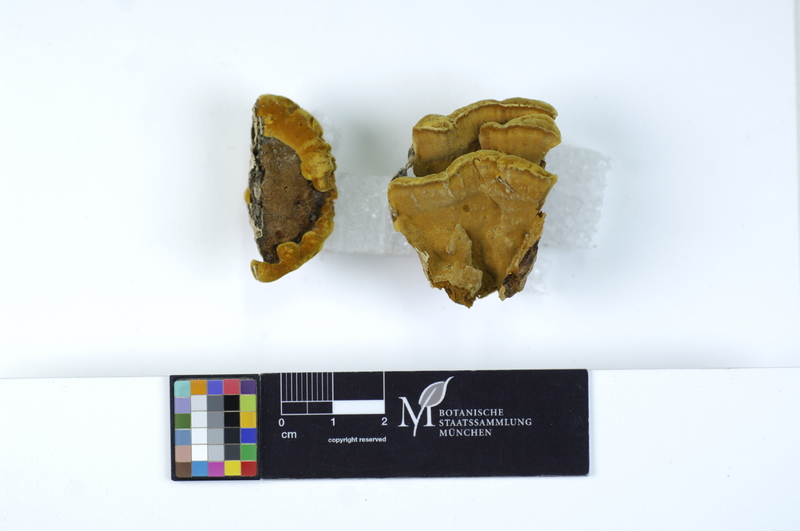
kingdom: Fungi
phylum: Basidiomycota
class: Agaricomycetes
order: Hymenochaetales
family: Hymenochaetaceae
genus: Phylloporia
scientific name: Phylloporia ribis
